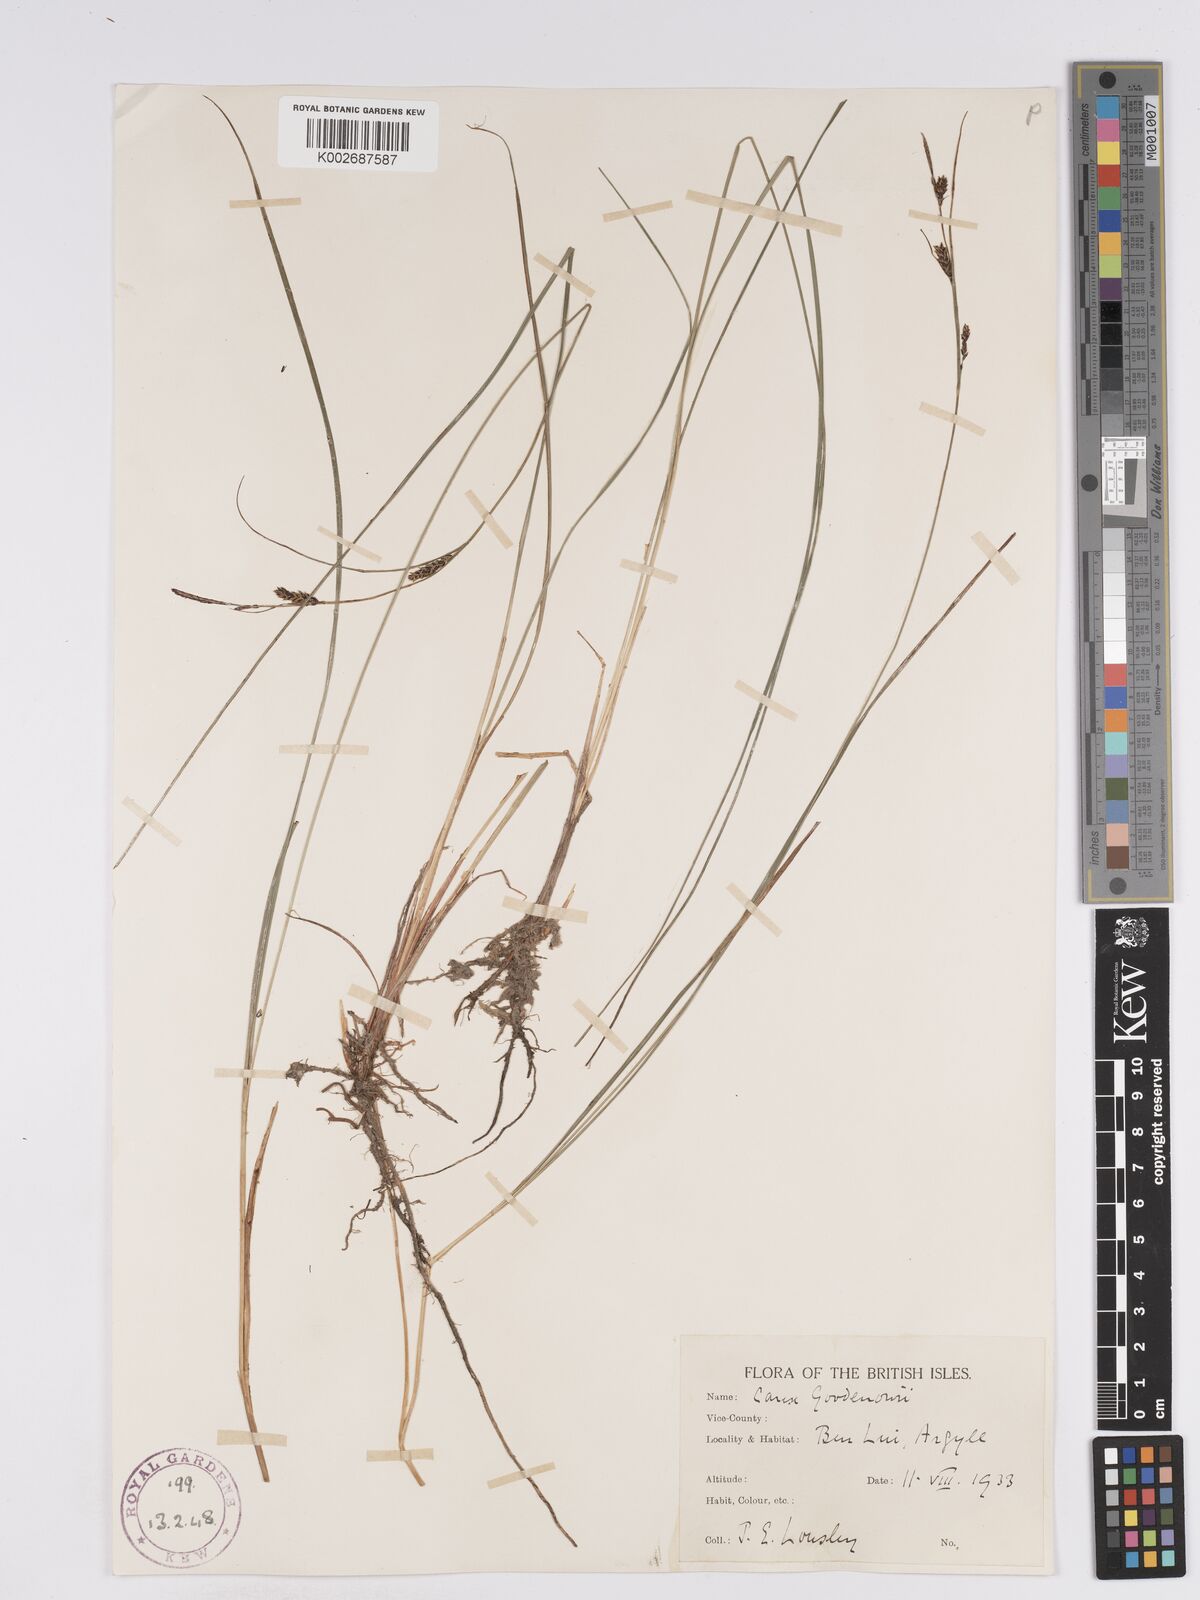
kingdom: Plantae
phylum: Tracheophyta
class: Liliopsida
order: Poales
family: Cyperaceae
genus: Carex
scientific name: Carex nigra
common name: Common sedge
